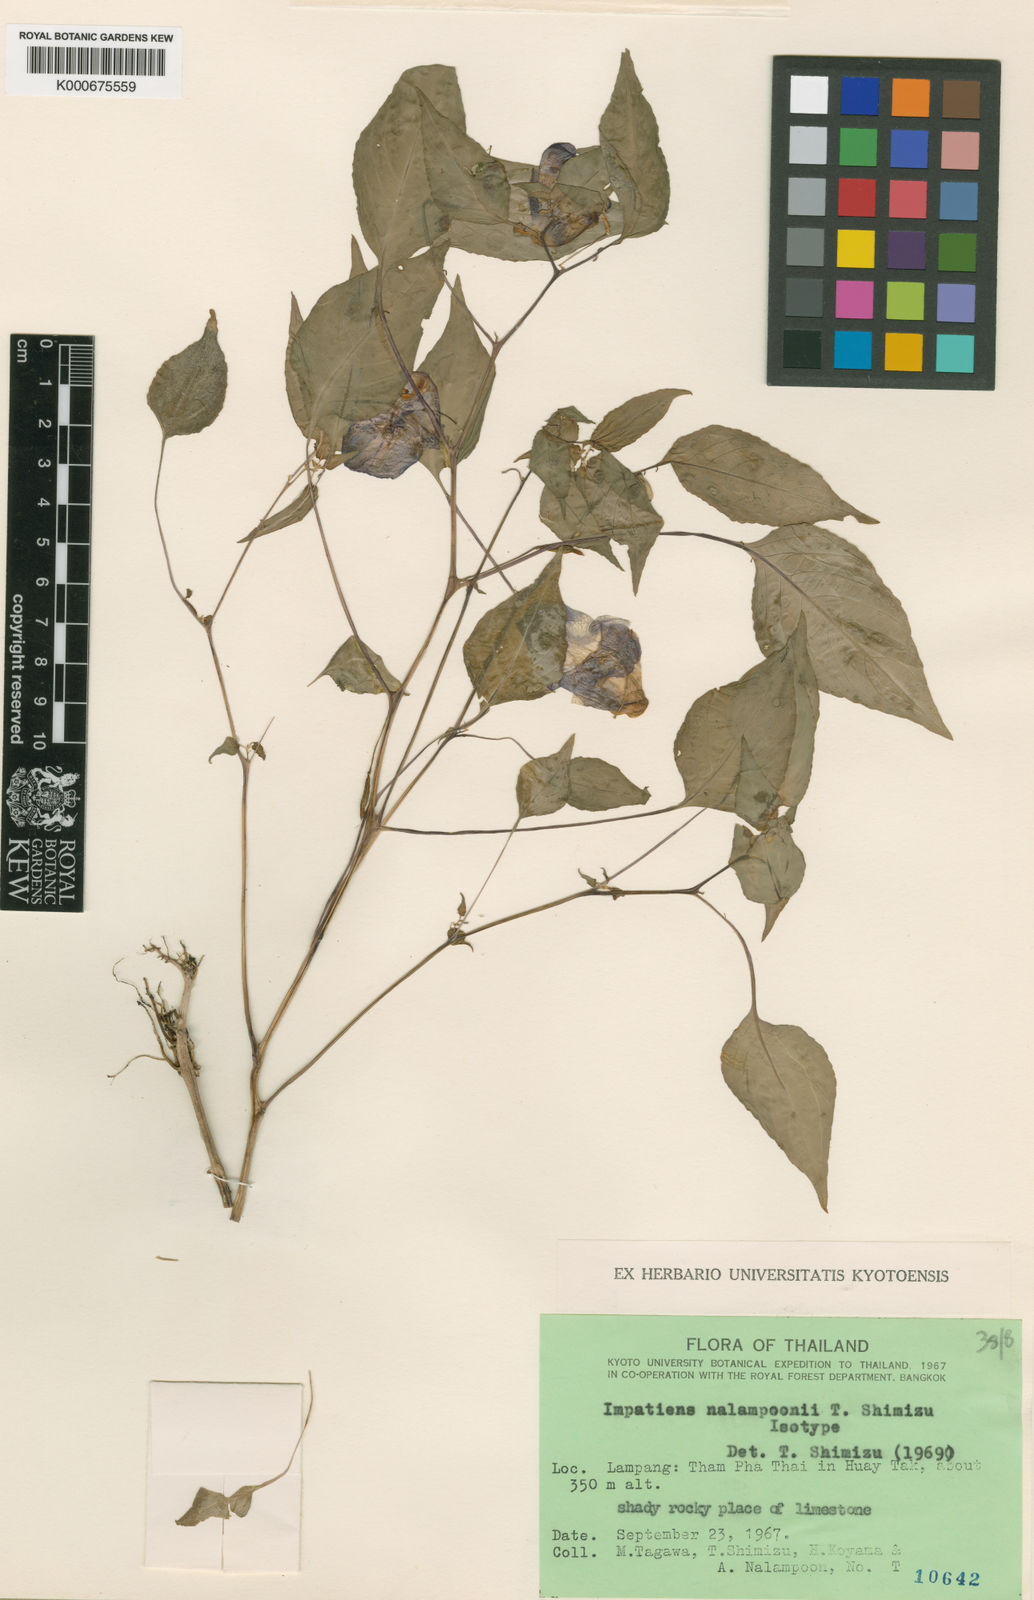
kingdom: Plantae
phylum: Tracheophyta
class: Magnoliopsida
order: Ericales
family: Balsaminaceae
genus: Impatiens
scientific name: Impatiens nalampoonii
